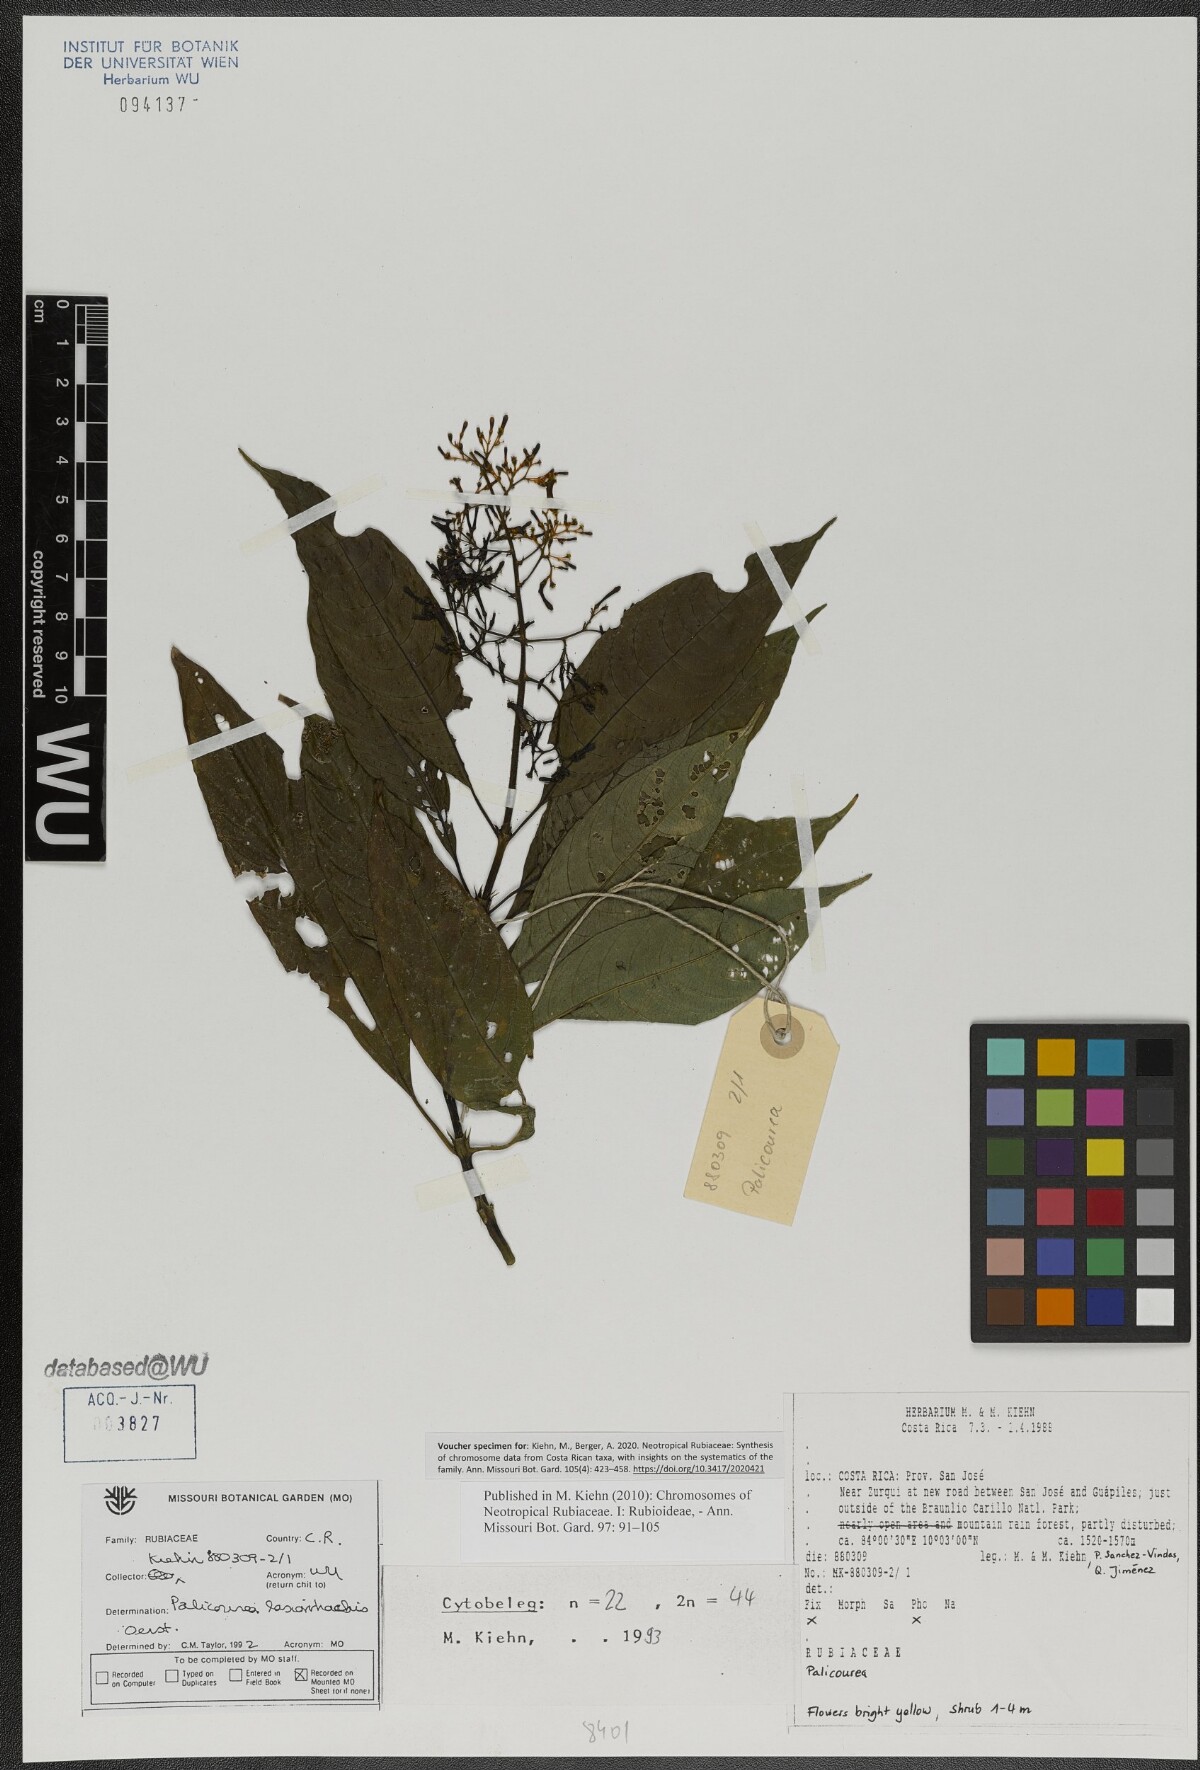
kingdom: Plantae
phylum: Tracheophyta
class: Magnoliopsida
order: Gentianales
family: Rubiaceae
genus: Palicourea
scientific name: Palicourea lasiorrhachis
